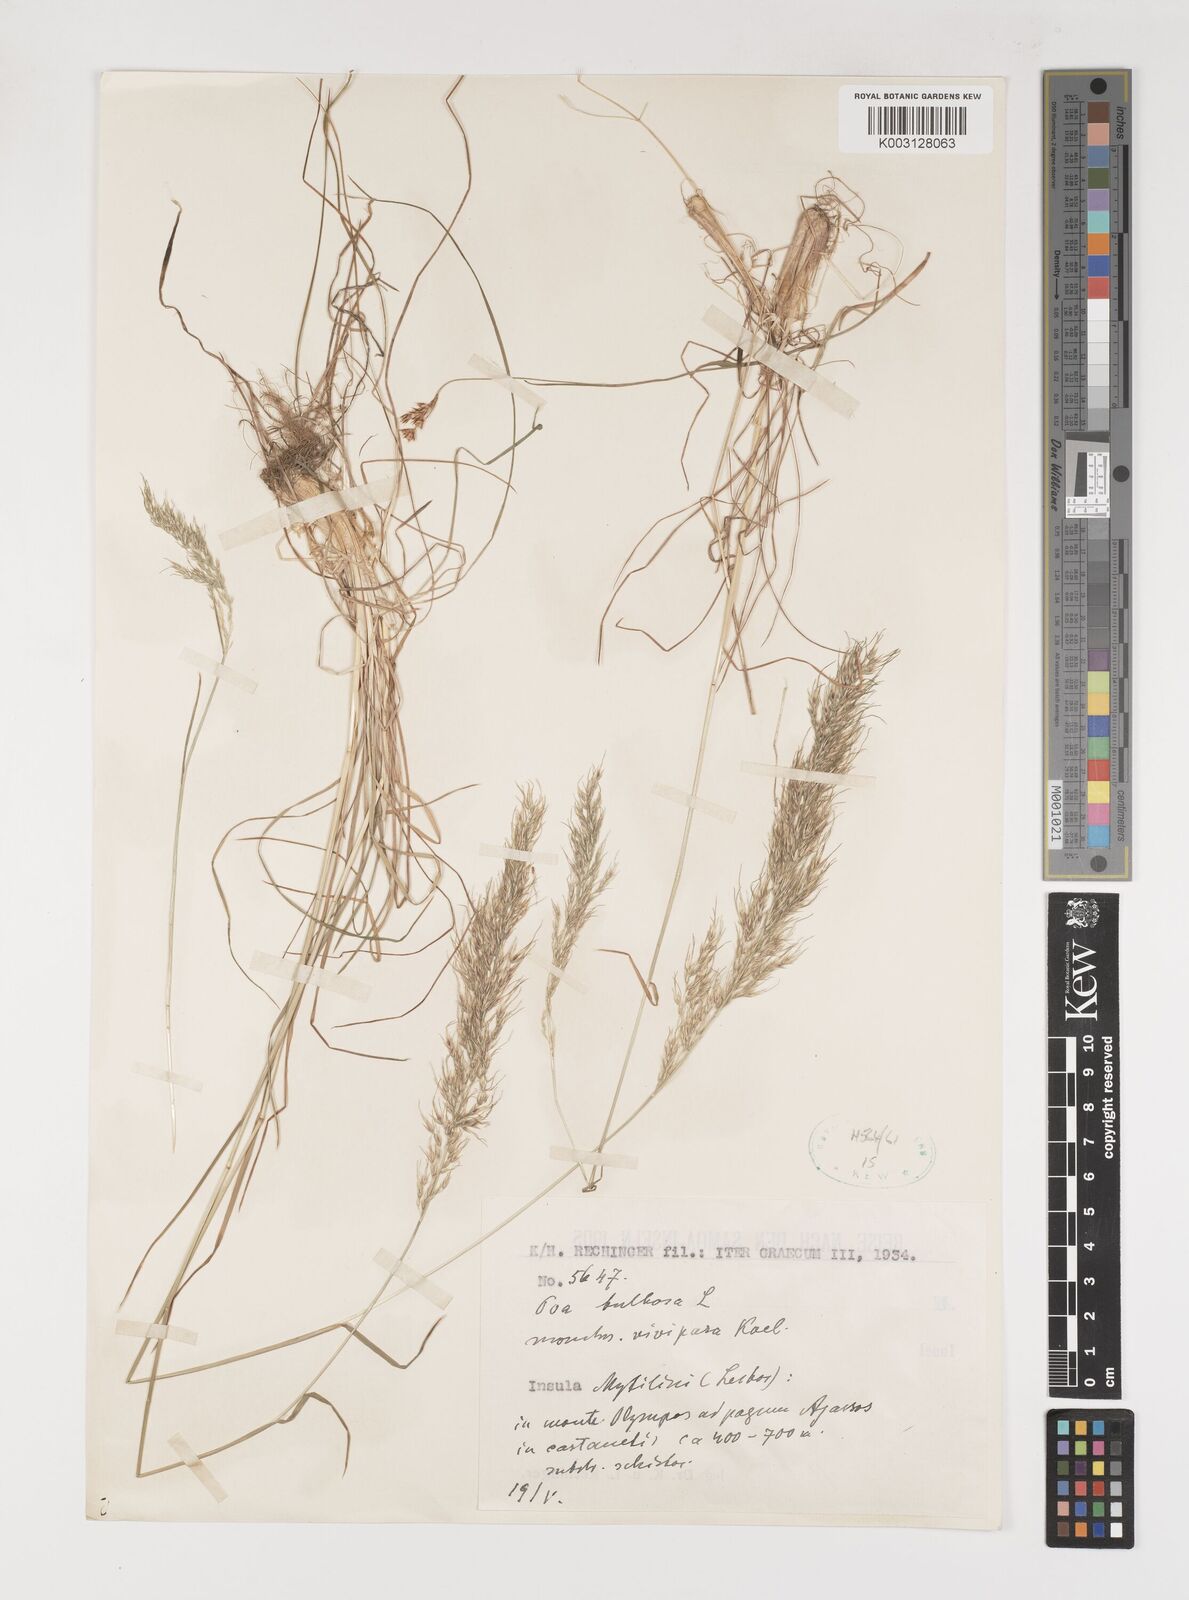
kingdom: Plantae
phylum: Tracheophyta
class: Liliopsida
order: Poales
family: Poaceae
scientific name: Poaceae
